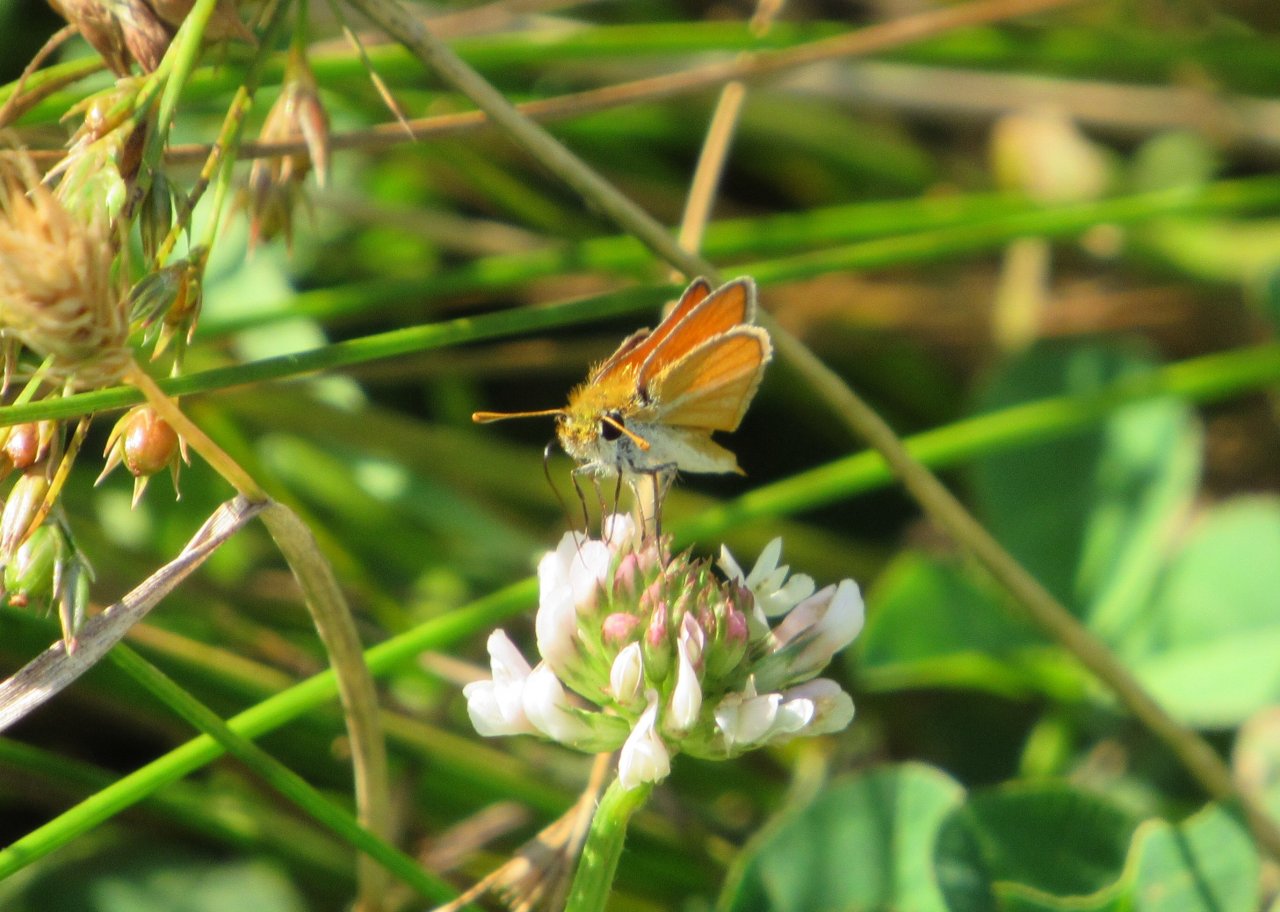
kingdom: Animalia
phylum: Arthropoda
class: Insecta
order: Lepidoptera
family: Hesperiidae
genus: Copaeodes
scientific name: Copaeodes minima
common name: Southern Skipperling
